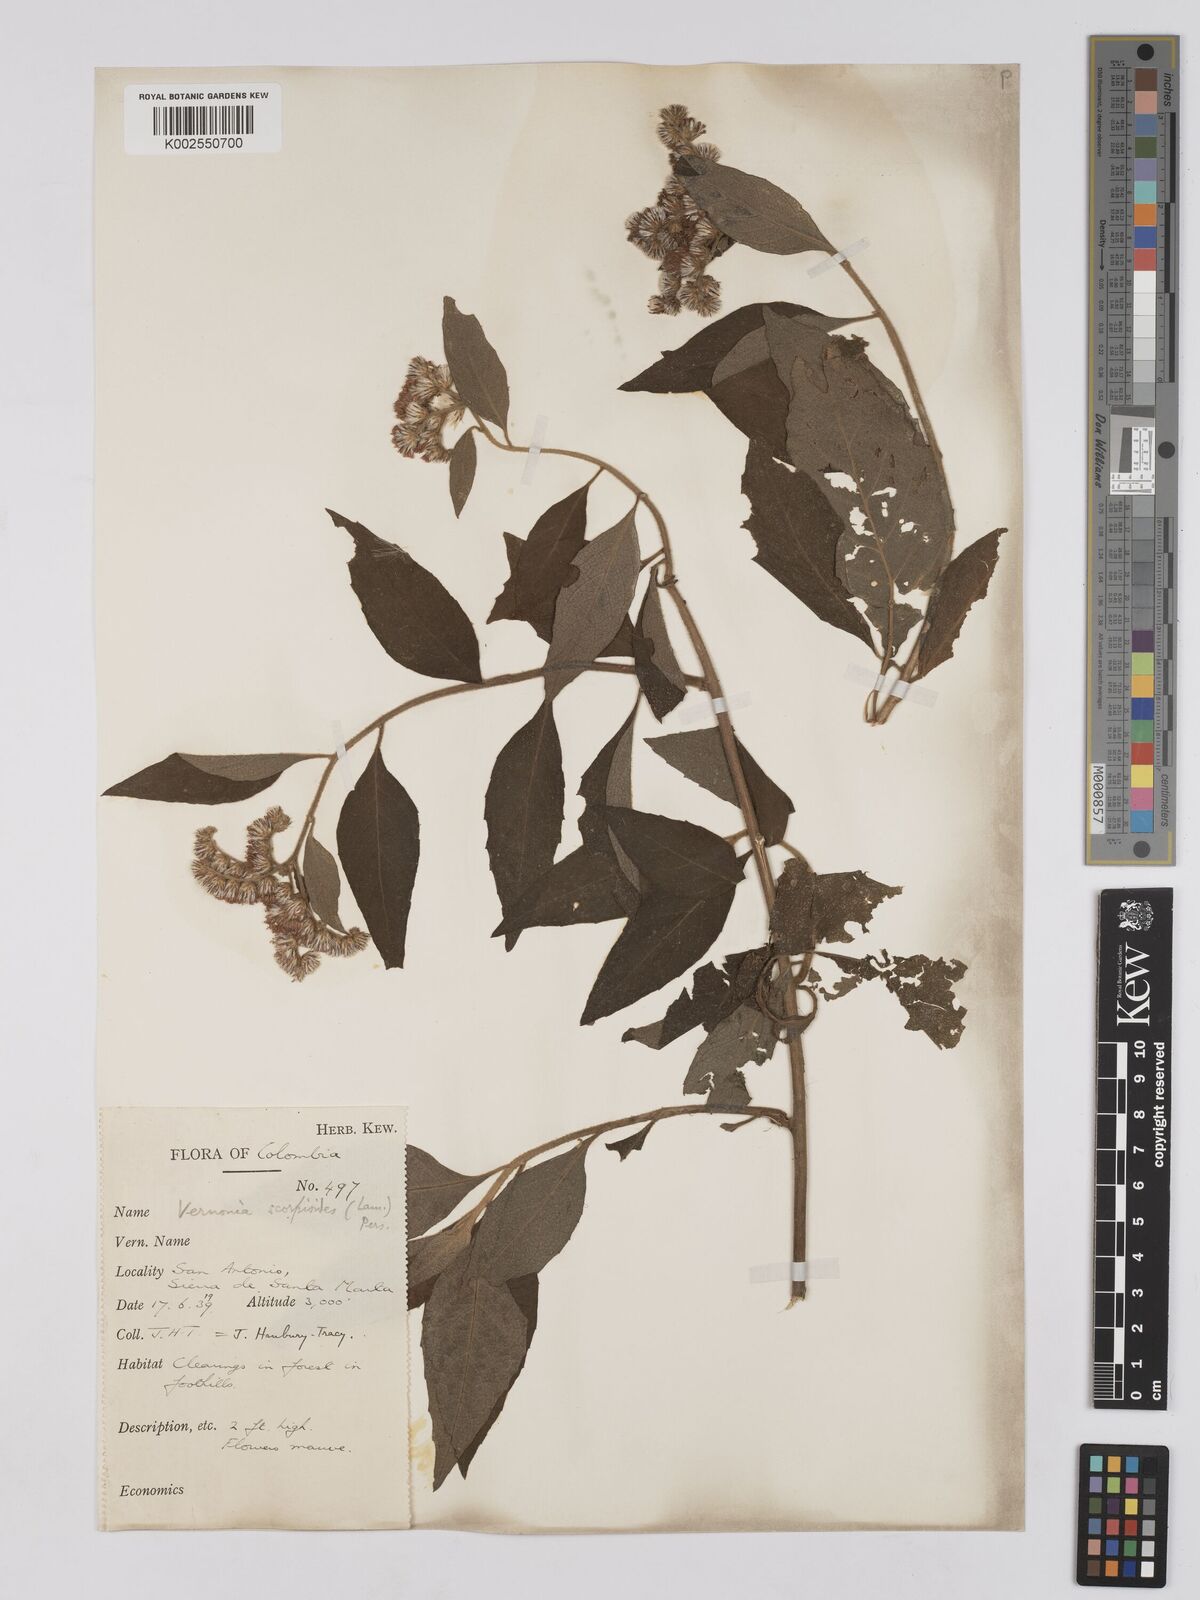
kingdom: Plantae
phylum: Tracheophyta
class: Magnoliopsida
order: Asterales
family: Asteraceae
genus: Cyrtocymura
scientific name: Cyrtocymura scorpioides
